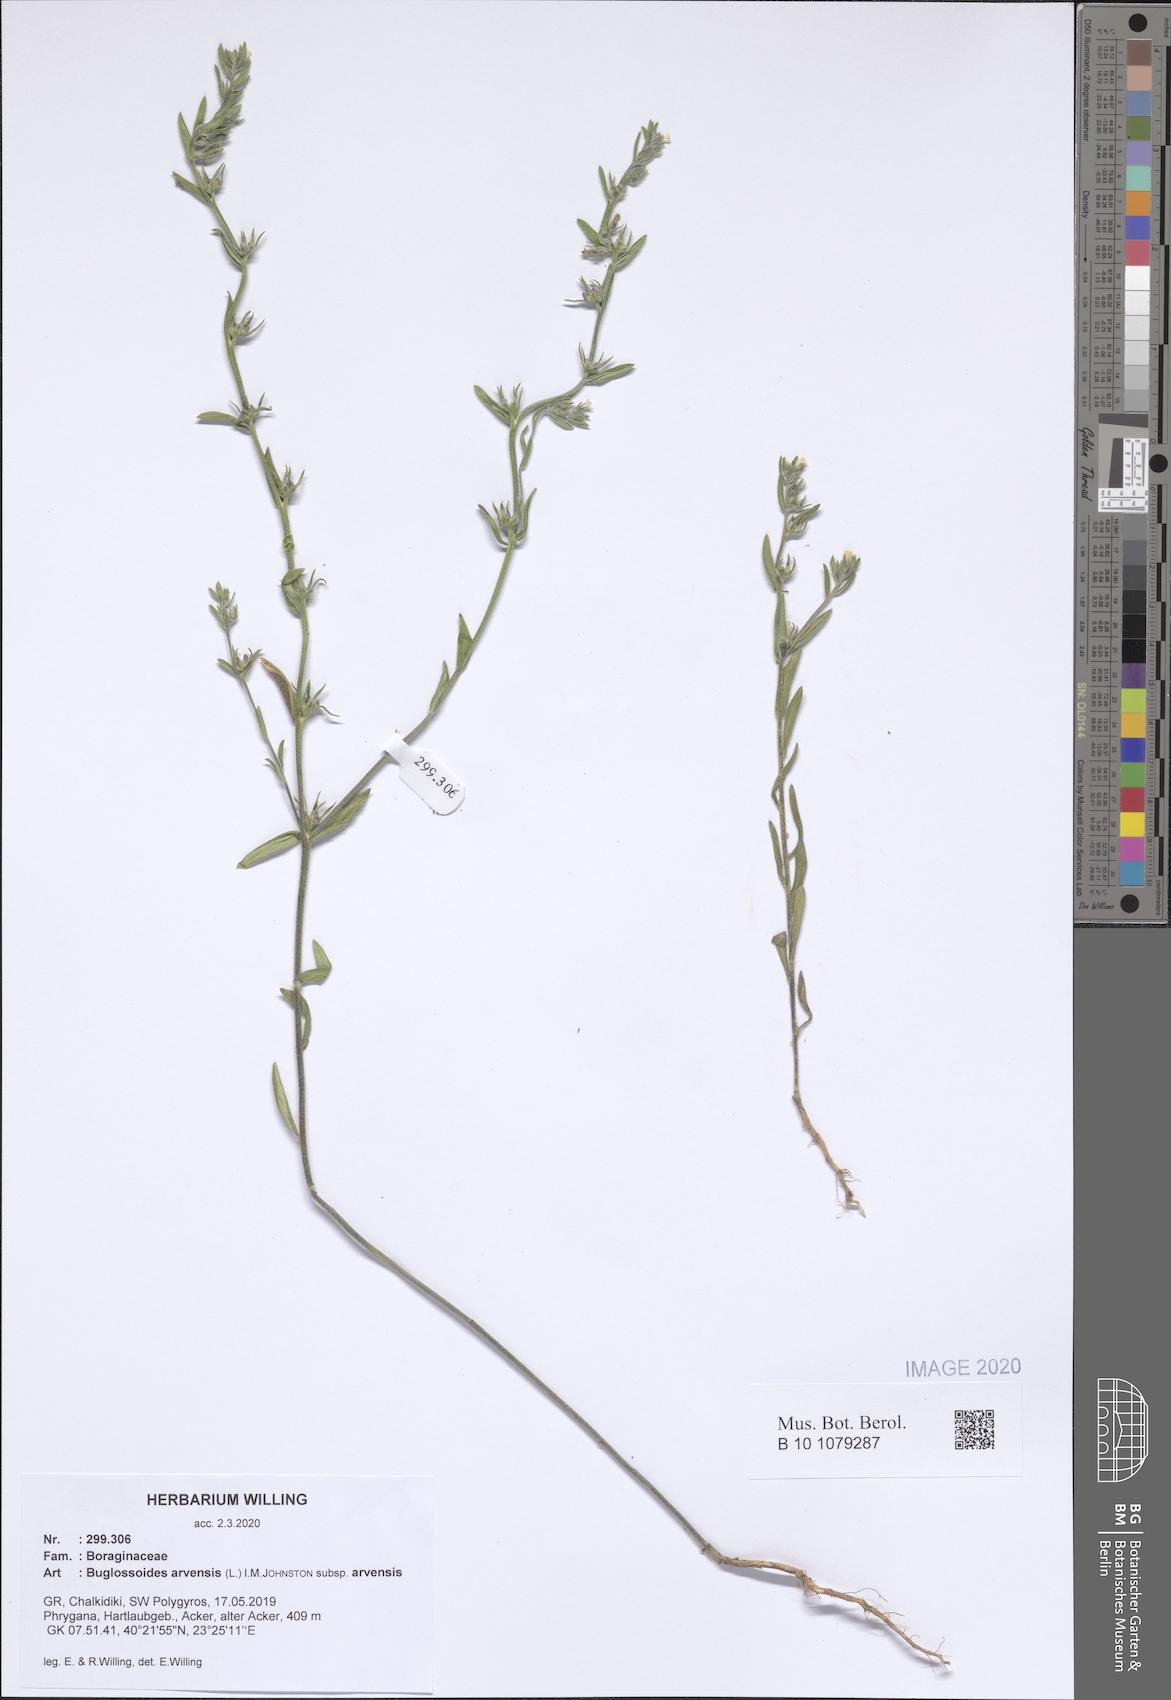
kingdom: Plantae
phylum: Tracheophyta
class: Magnoliopsida
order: Boraginales
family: Boraginaceae
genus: Buglossoides
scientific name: Buglossoides arvensis
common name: Corn gromwell
